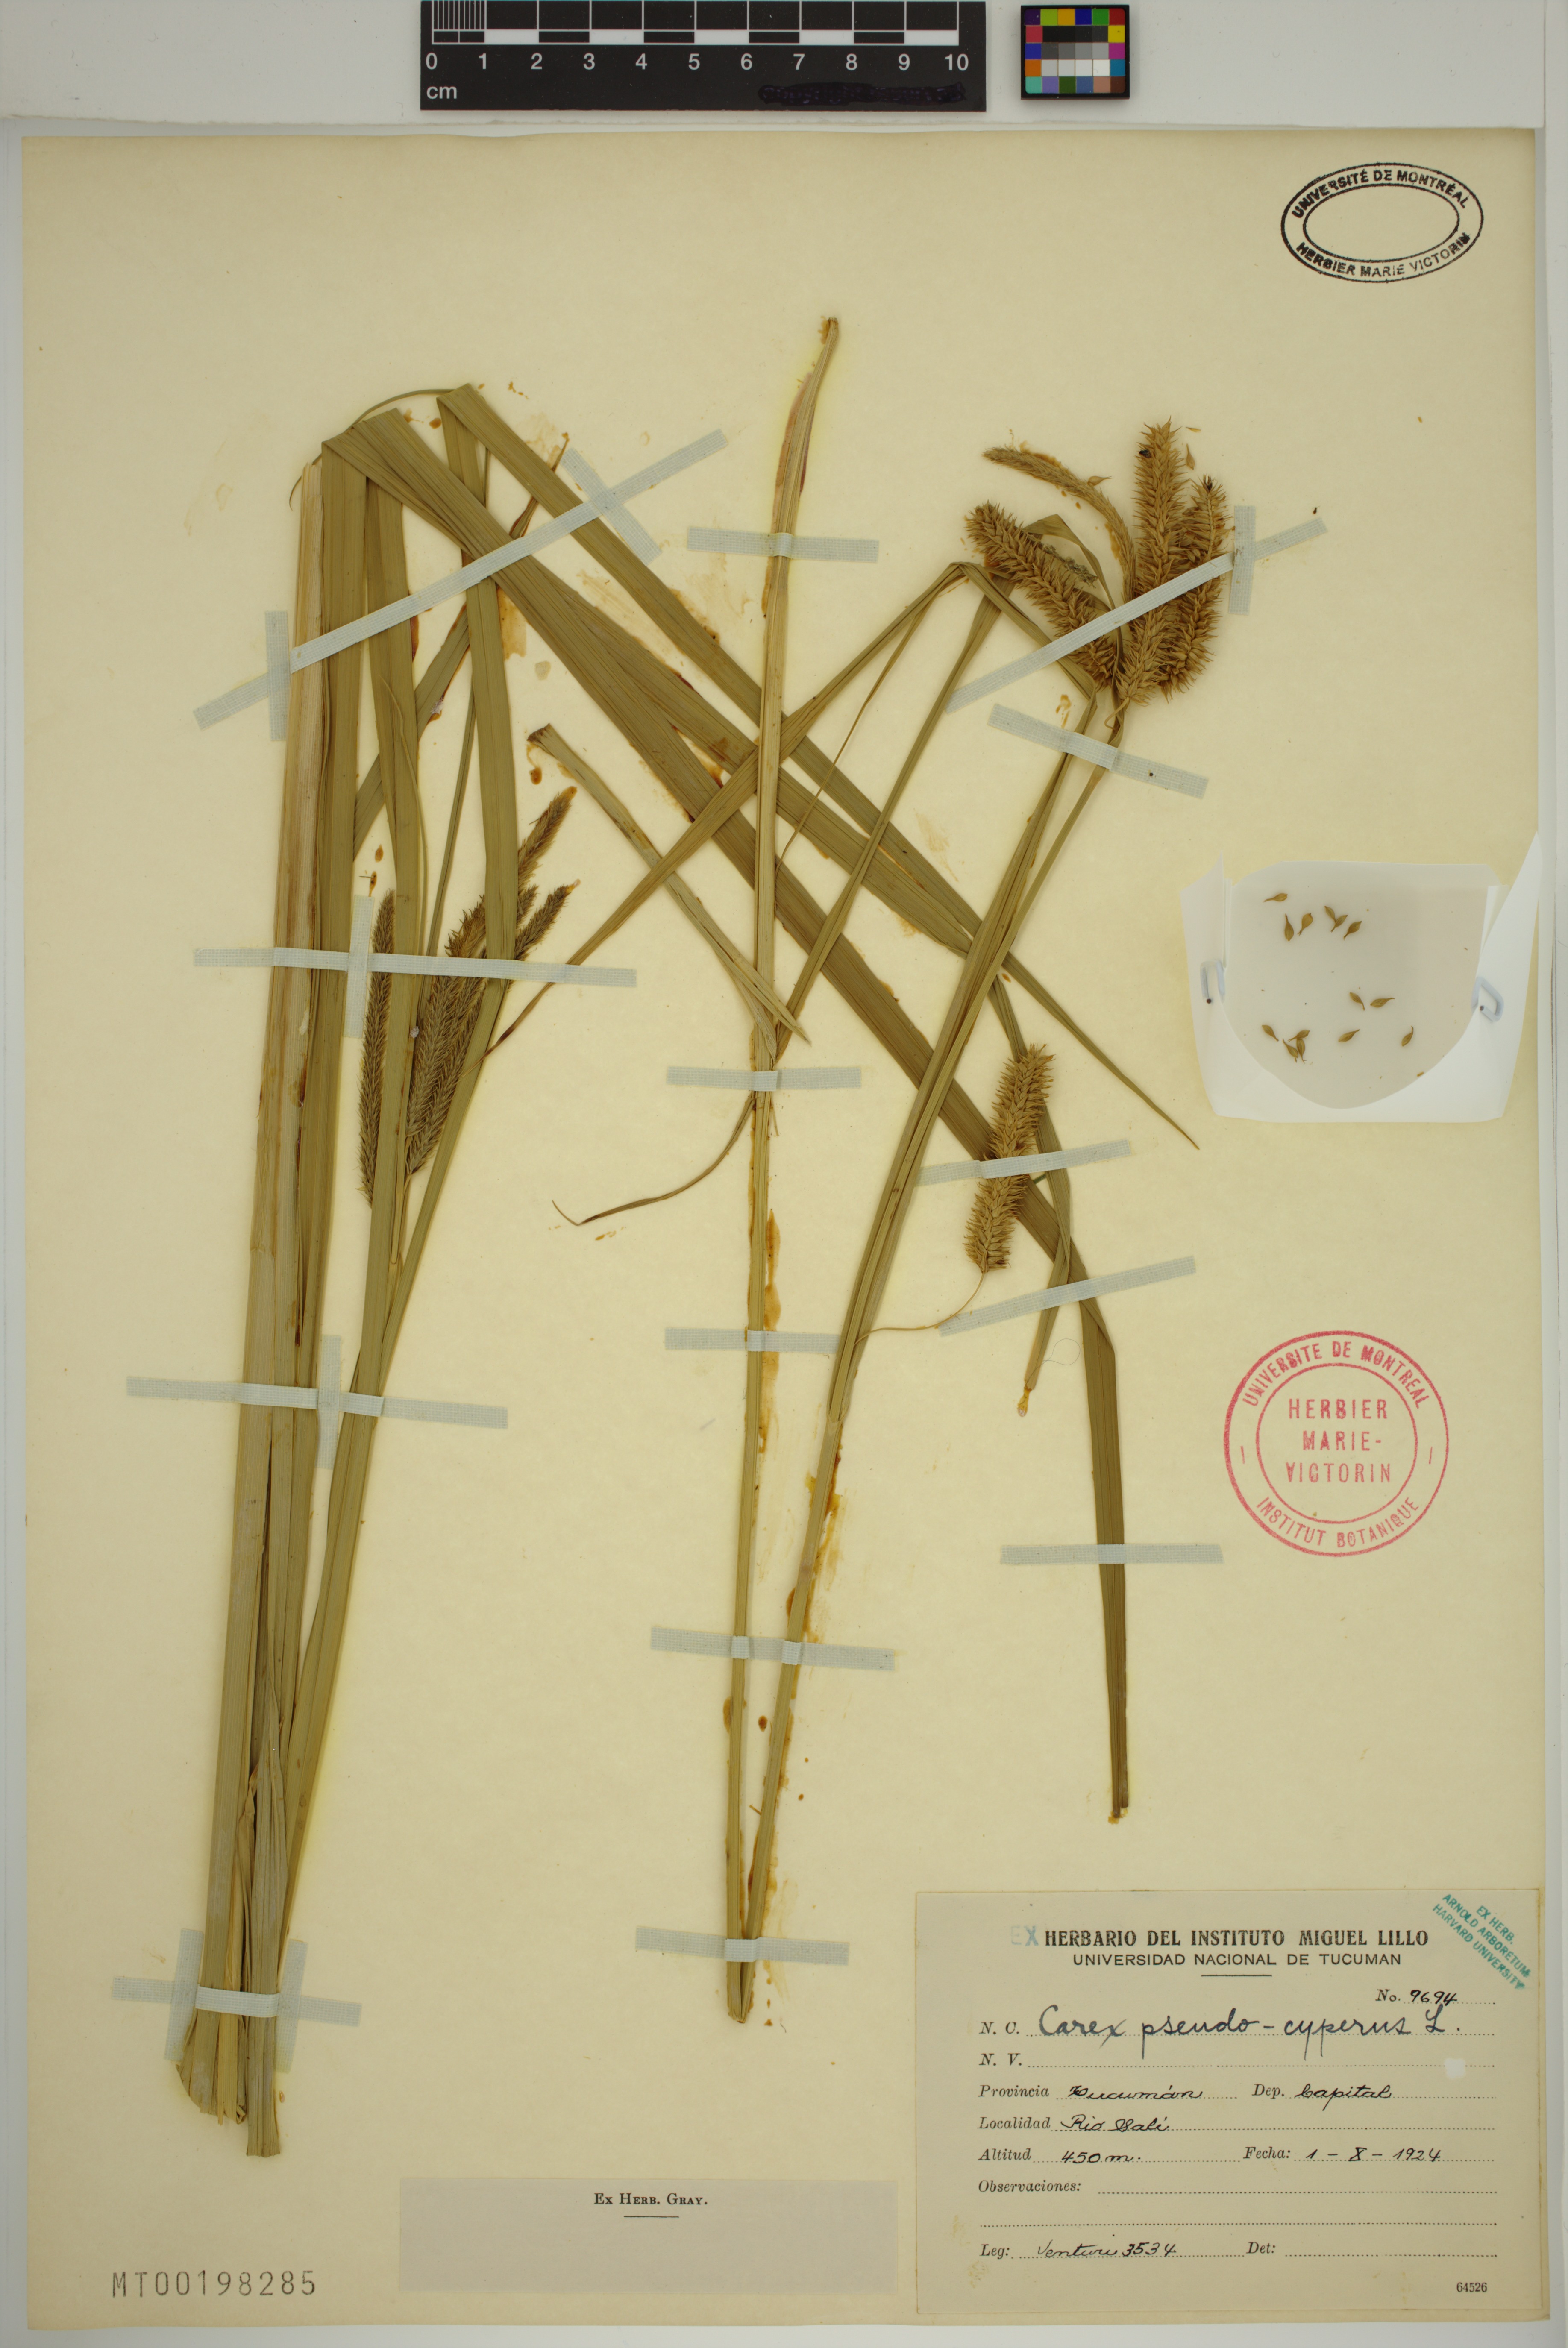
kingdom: Plantae
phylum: Tracheophyta
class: Liliopsida
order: Poales
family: Cyperaceae
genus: Carex
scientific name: Carex pseudocyperus
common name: Cyperus sedge
